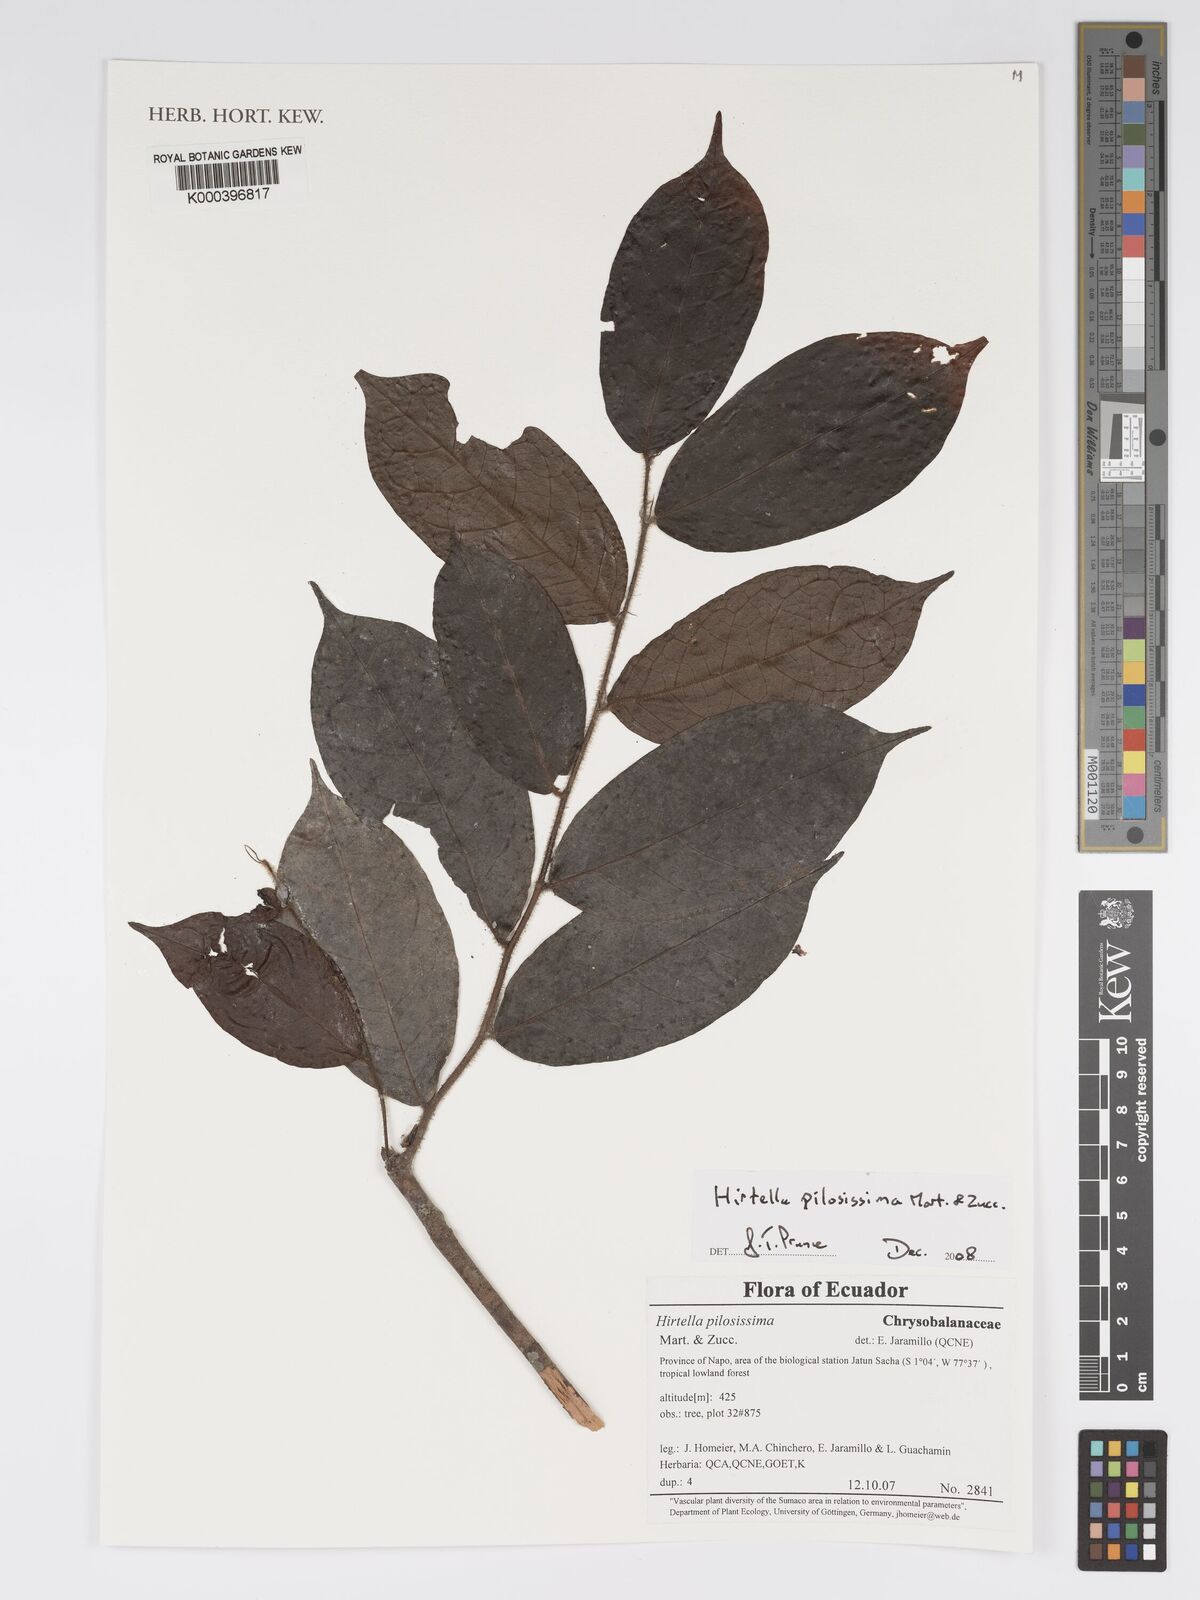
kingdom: Plantae
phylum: Tracheophyta
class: Magnoliopsida
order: Malpighiales
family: Chrysobalanaceae
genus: Hirtella
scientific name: Hirtella pilosissima
